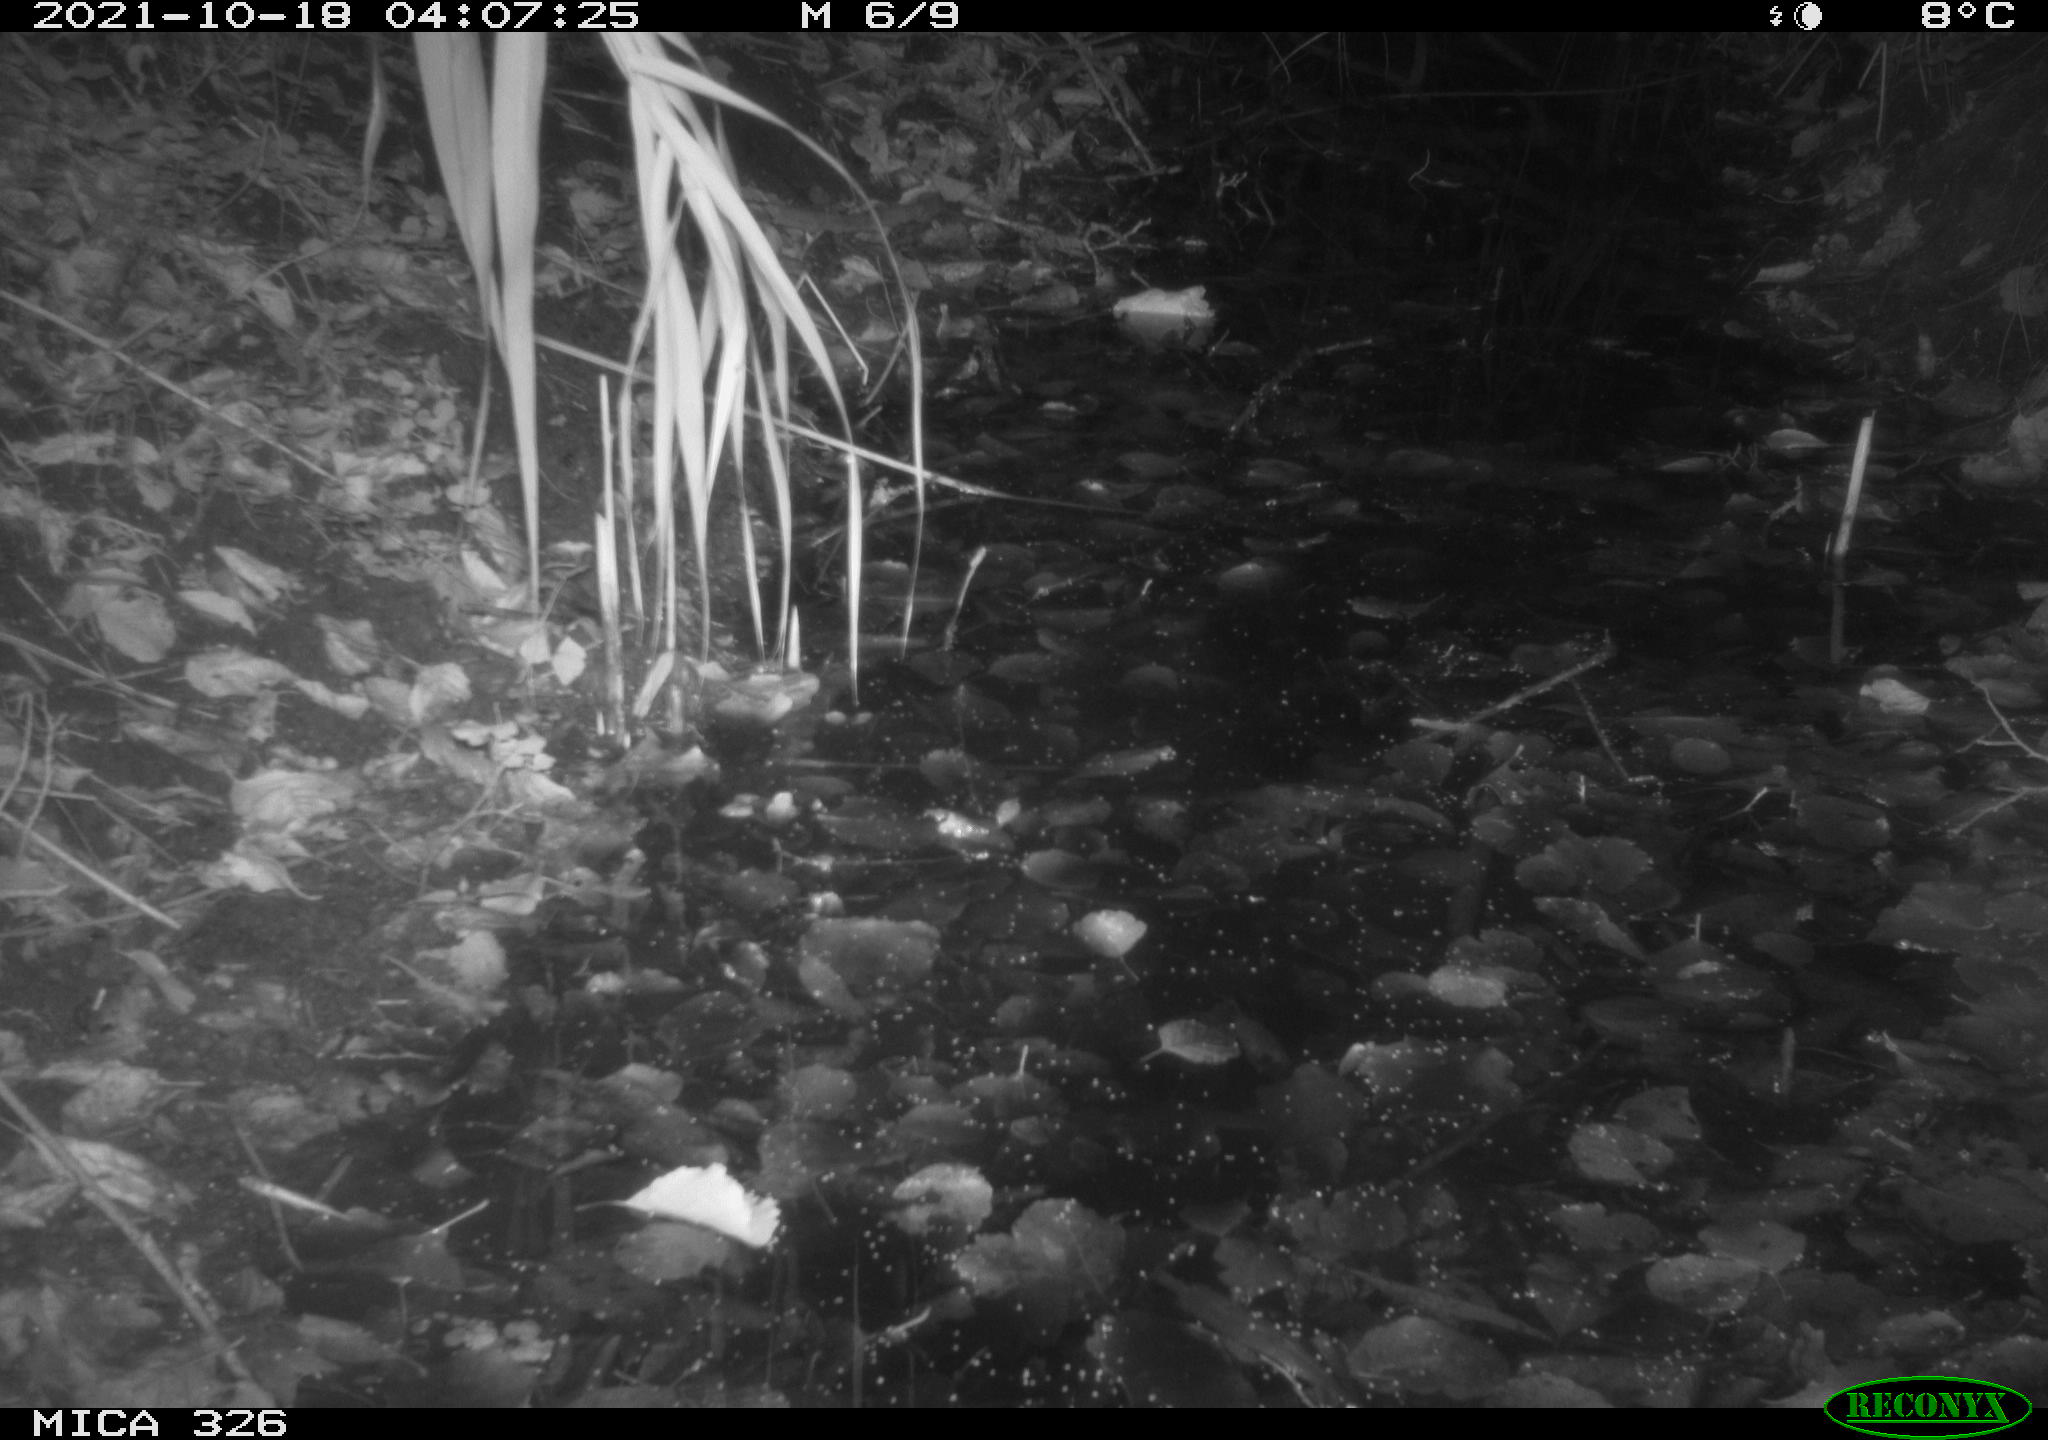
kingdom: Animalia
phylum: Chordata
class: Mammalia
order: Rodentia
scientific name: Rodentia
